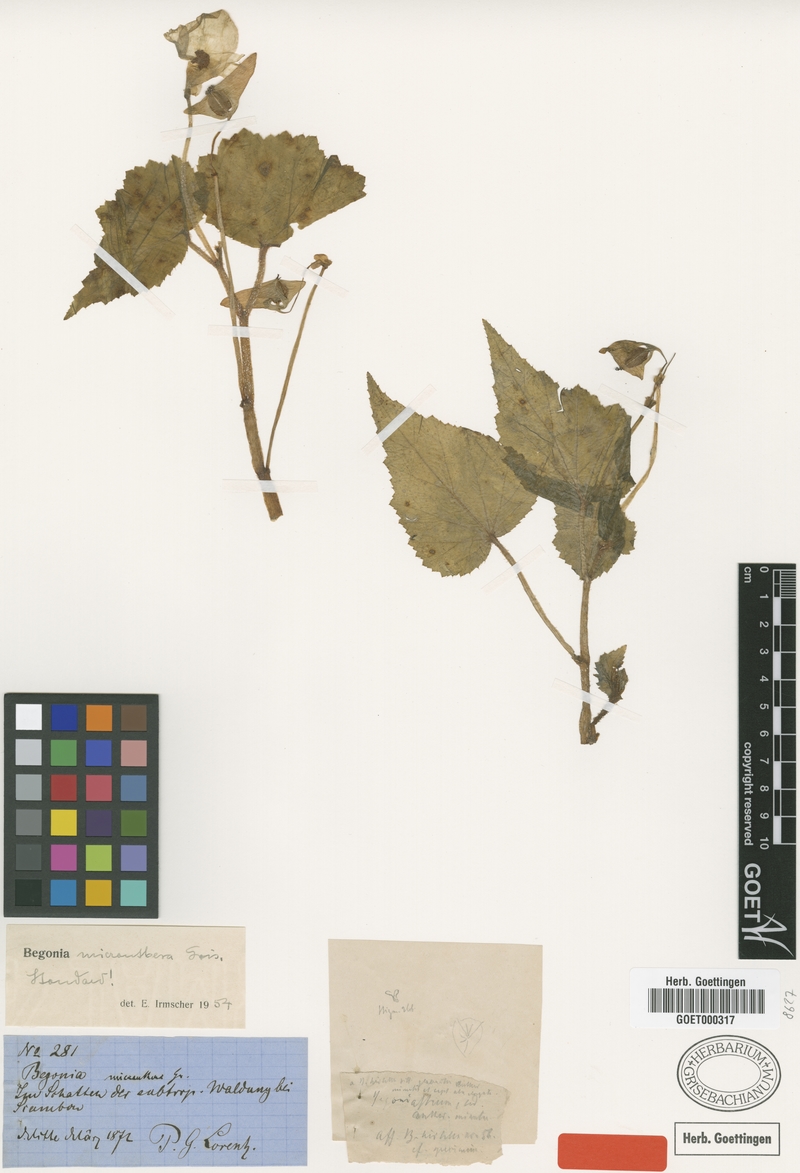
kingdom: Plantae
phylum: Tracheophyta
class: Magnoliopsida
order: Cucurbitales
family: Begoniaceae
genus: Begonia
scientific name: Begonia micranthera
